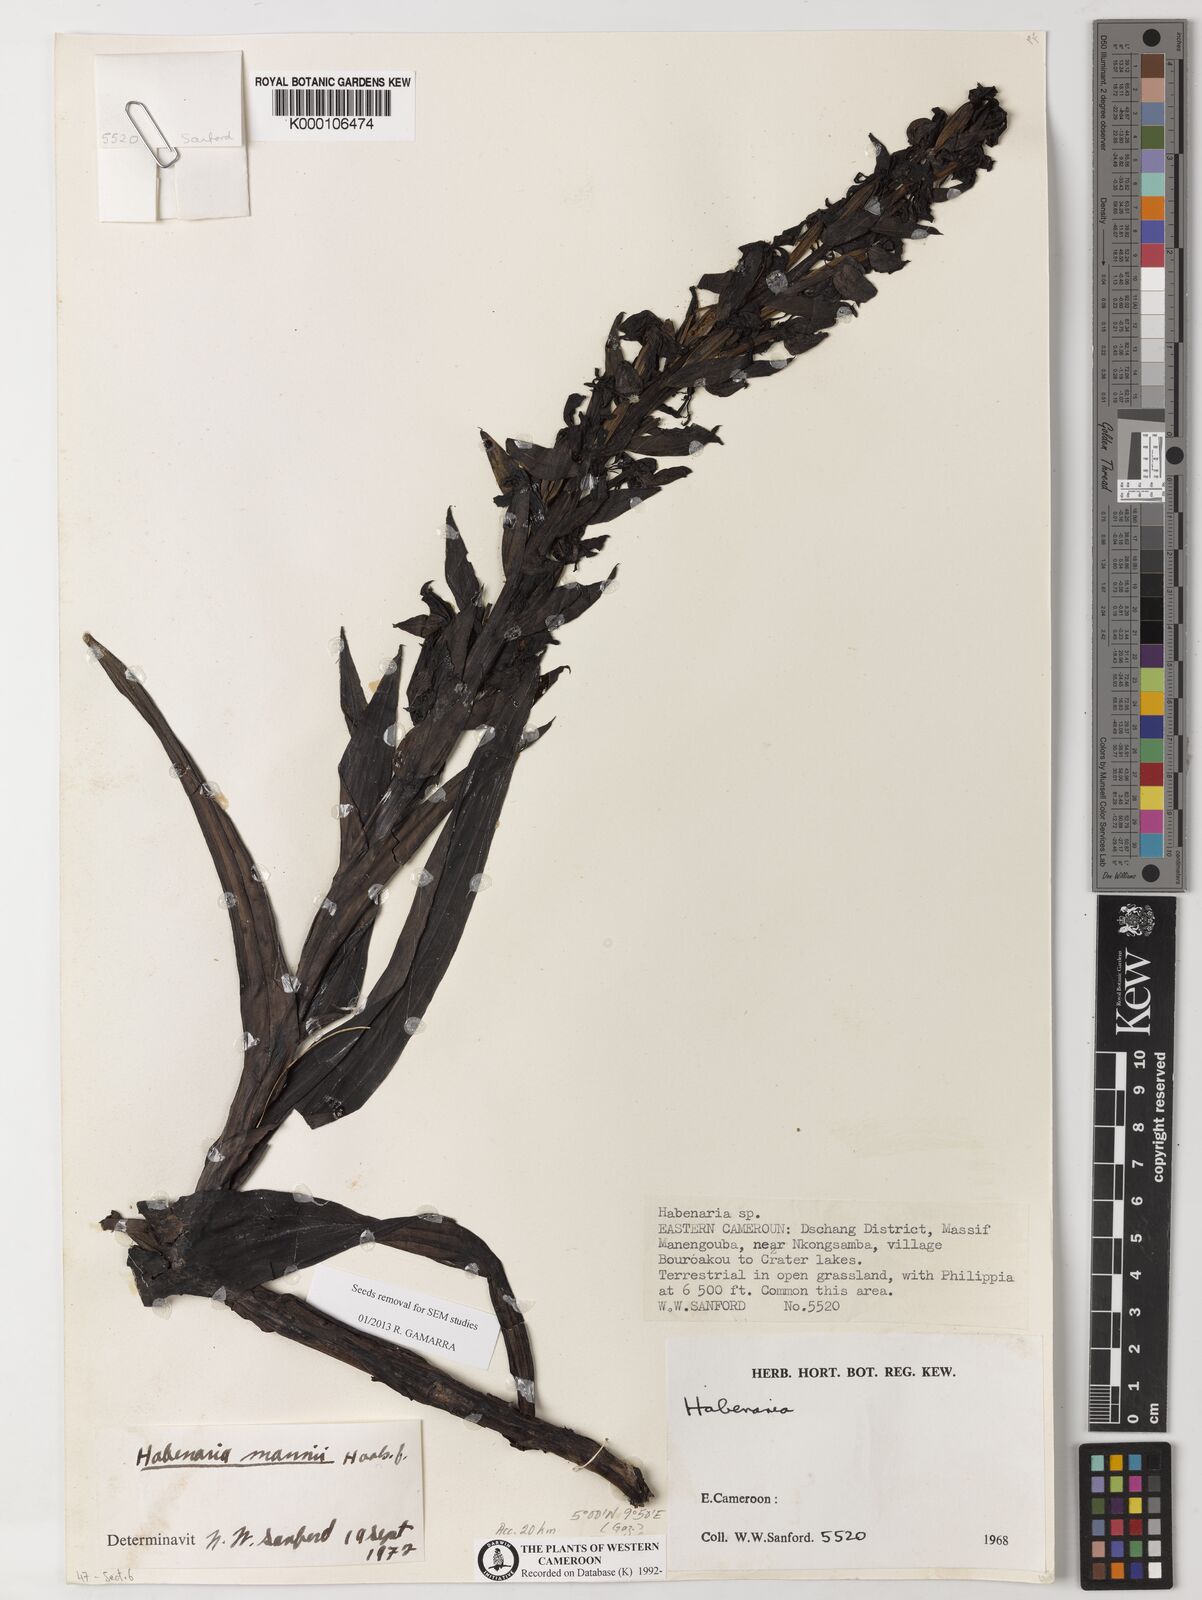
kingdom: Plantae
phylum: Tracheophyta
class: Liliopsida
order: Asparagales
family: Orchidaceae
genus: Habenaria
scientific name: Habenaria mannii
